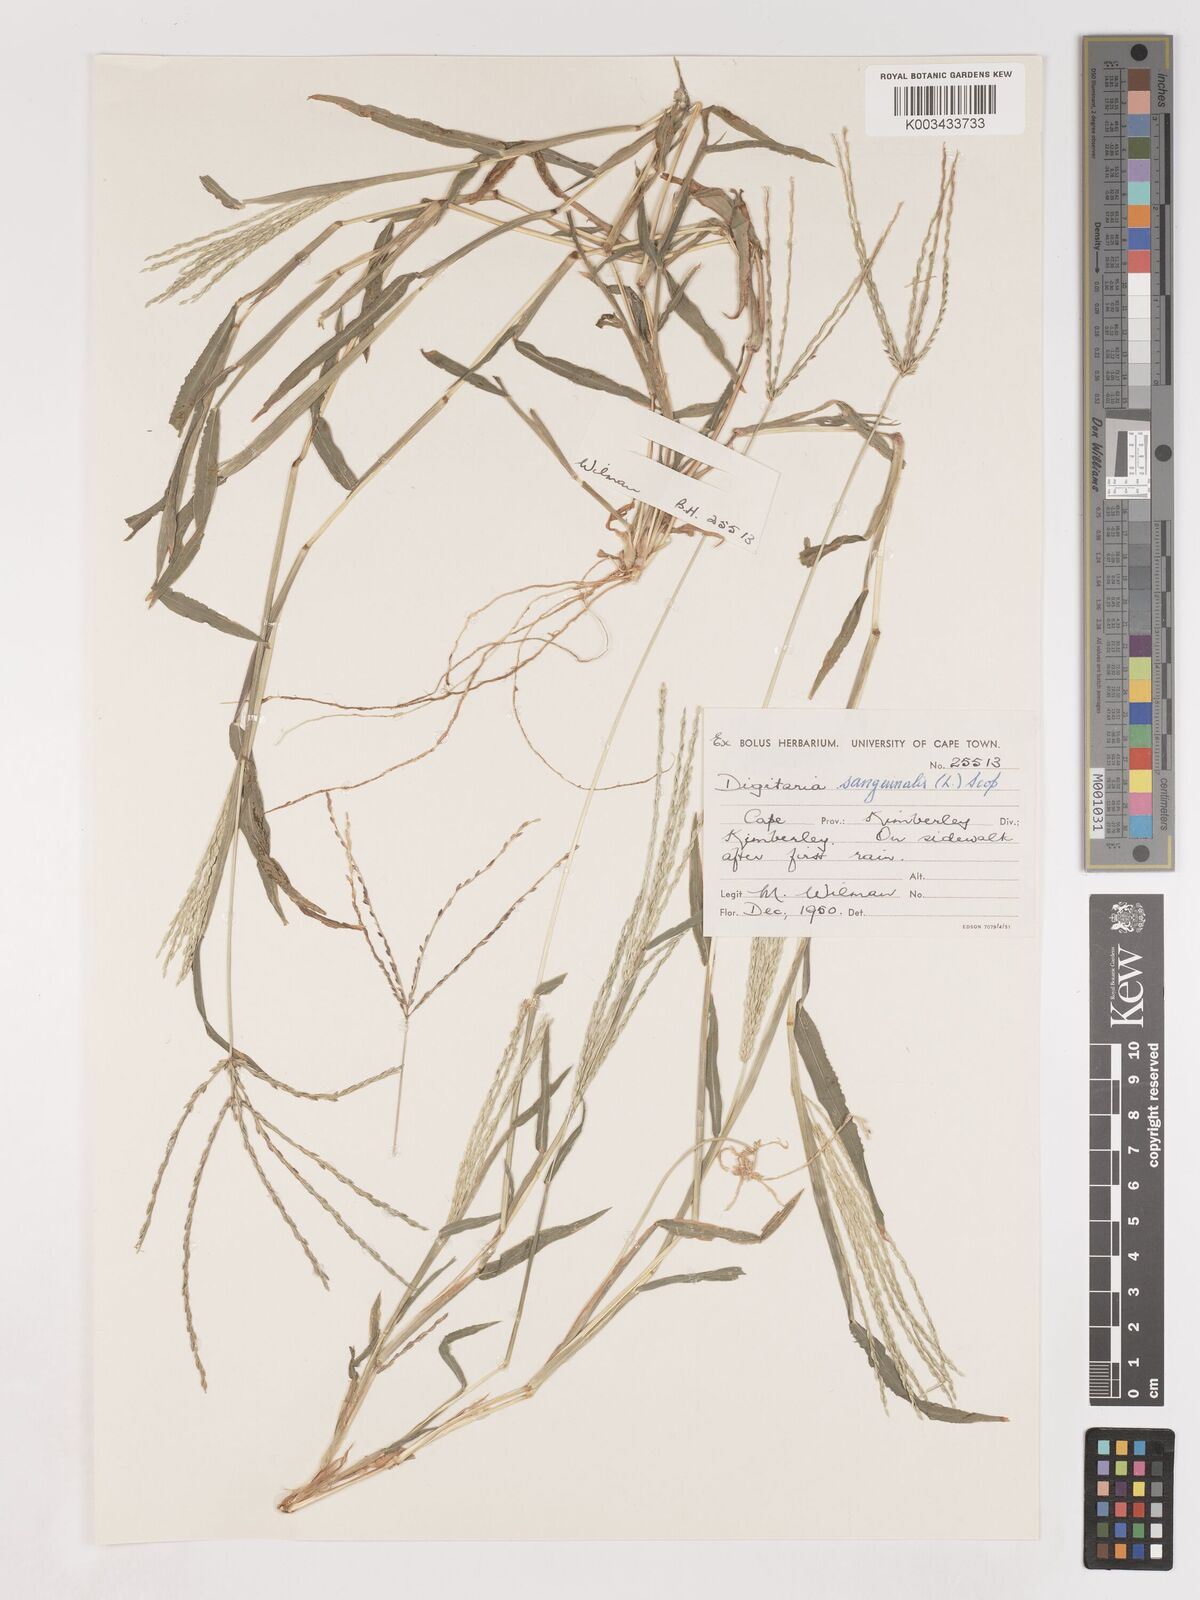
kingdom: Plantae
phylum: Tracheophyta
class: Liliopsida
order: Poales
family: Poaceae
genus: Digitaria
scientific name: Digitaria sanguinalis
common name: Hairy crabgrass
